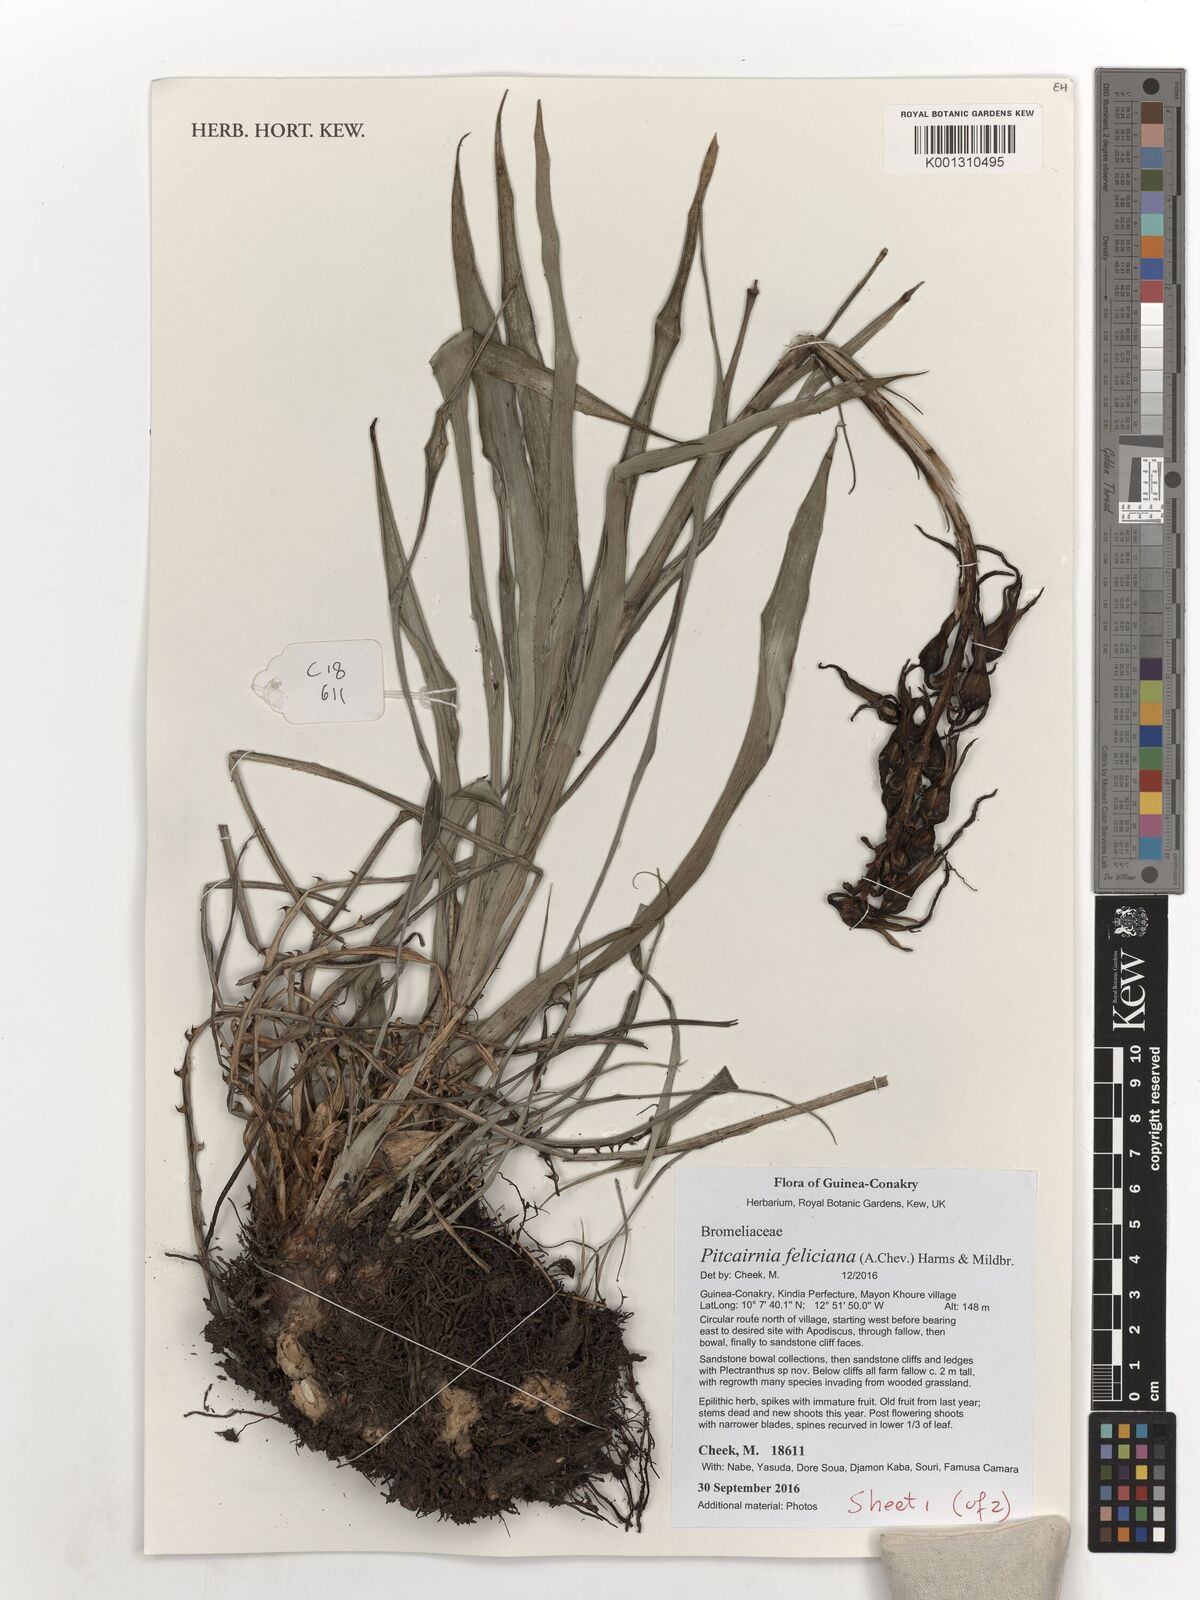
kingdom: Plantae
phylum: Tracheophyta
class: Liliopsida
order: Poales
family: Bromeliaceae
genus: Pitcairnia
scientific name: Pitcairnia feliciana
